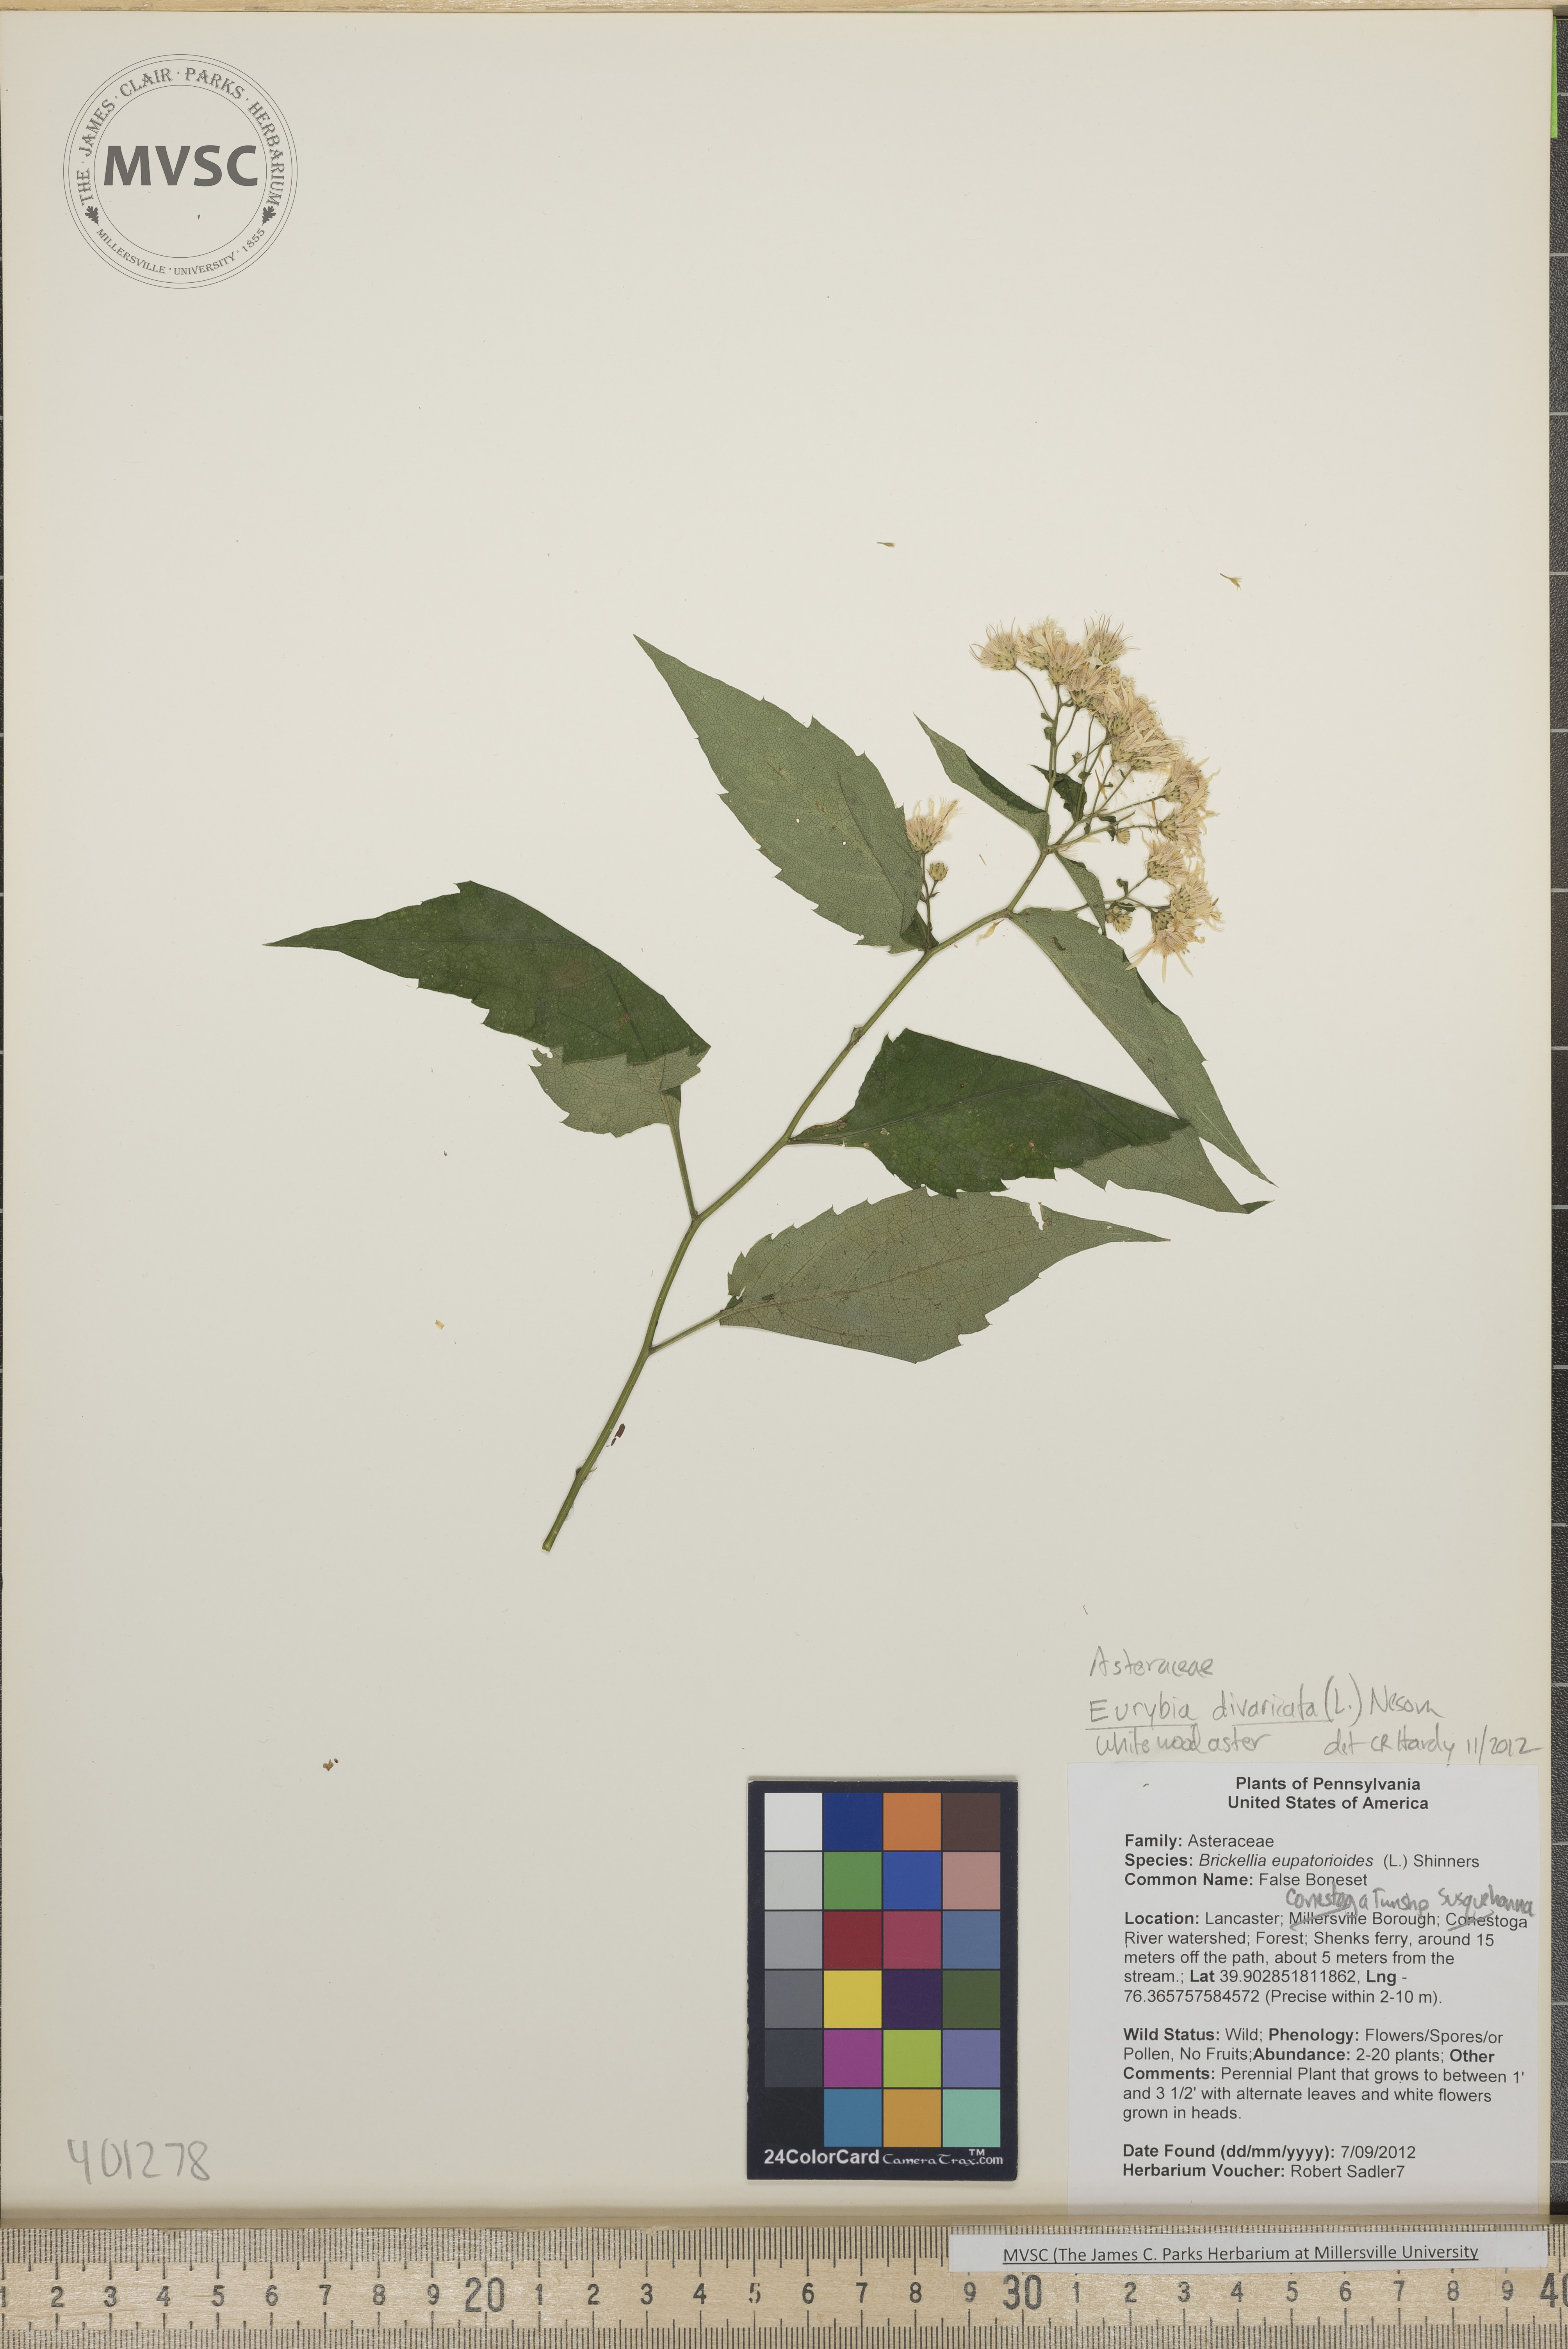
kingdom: Plantae
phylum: Tracheophyta
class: Magnoliopsida
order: Asterales
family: Asteraceae
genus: Eurybia
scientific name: Eurybia divaricata
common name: white wood aster
